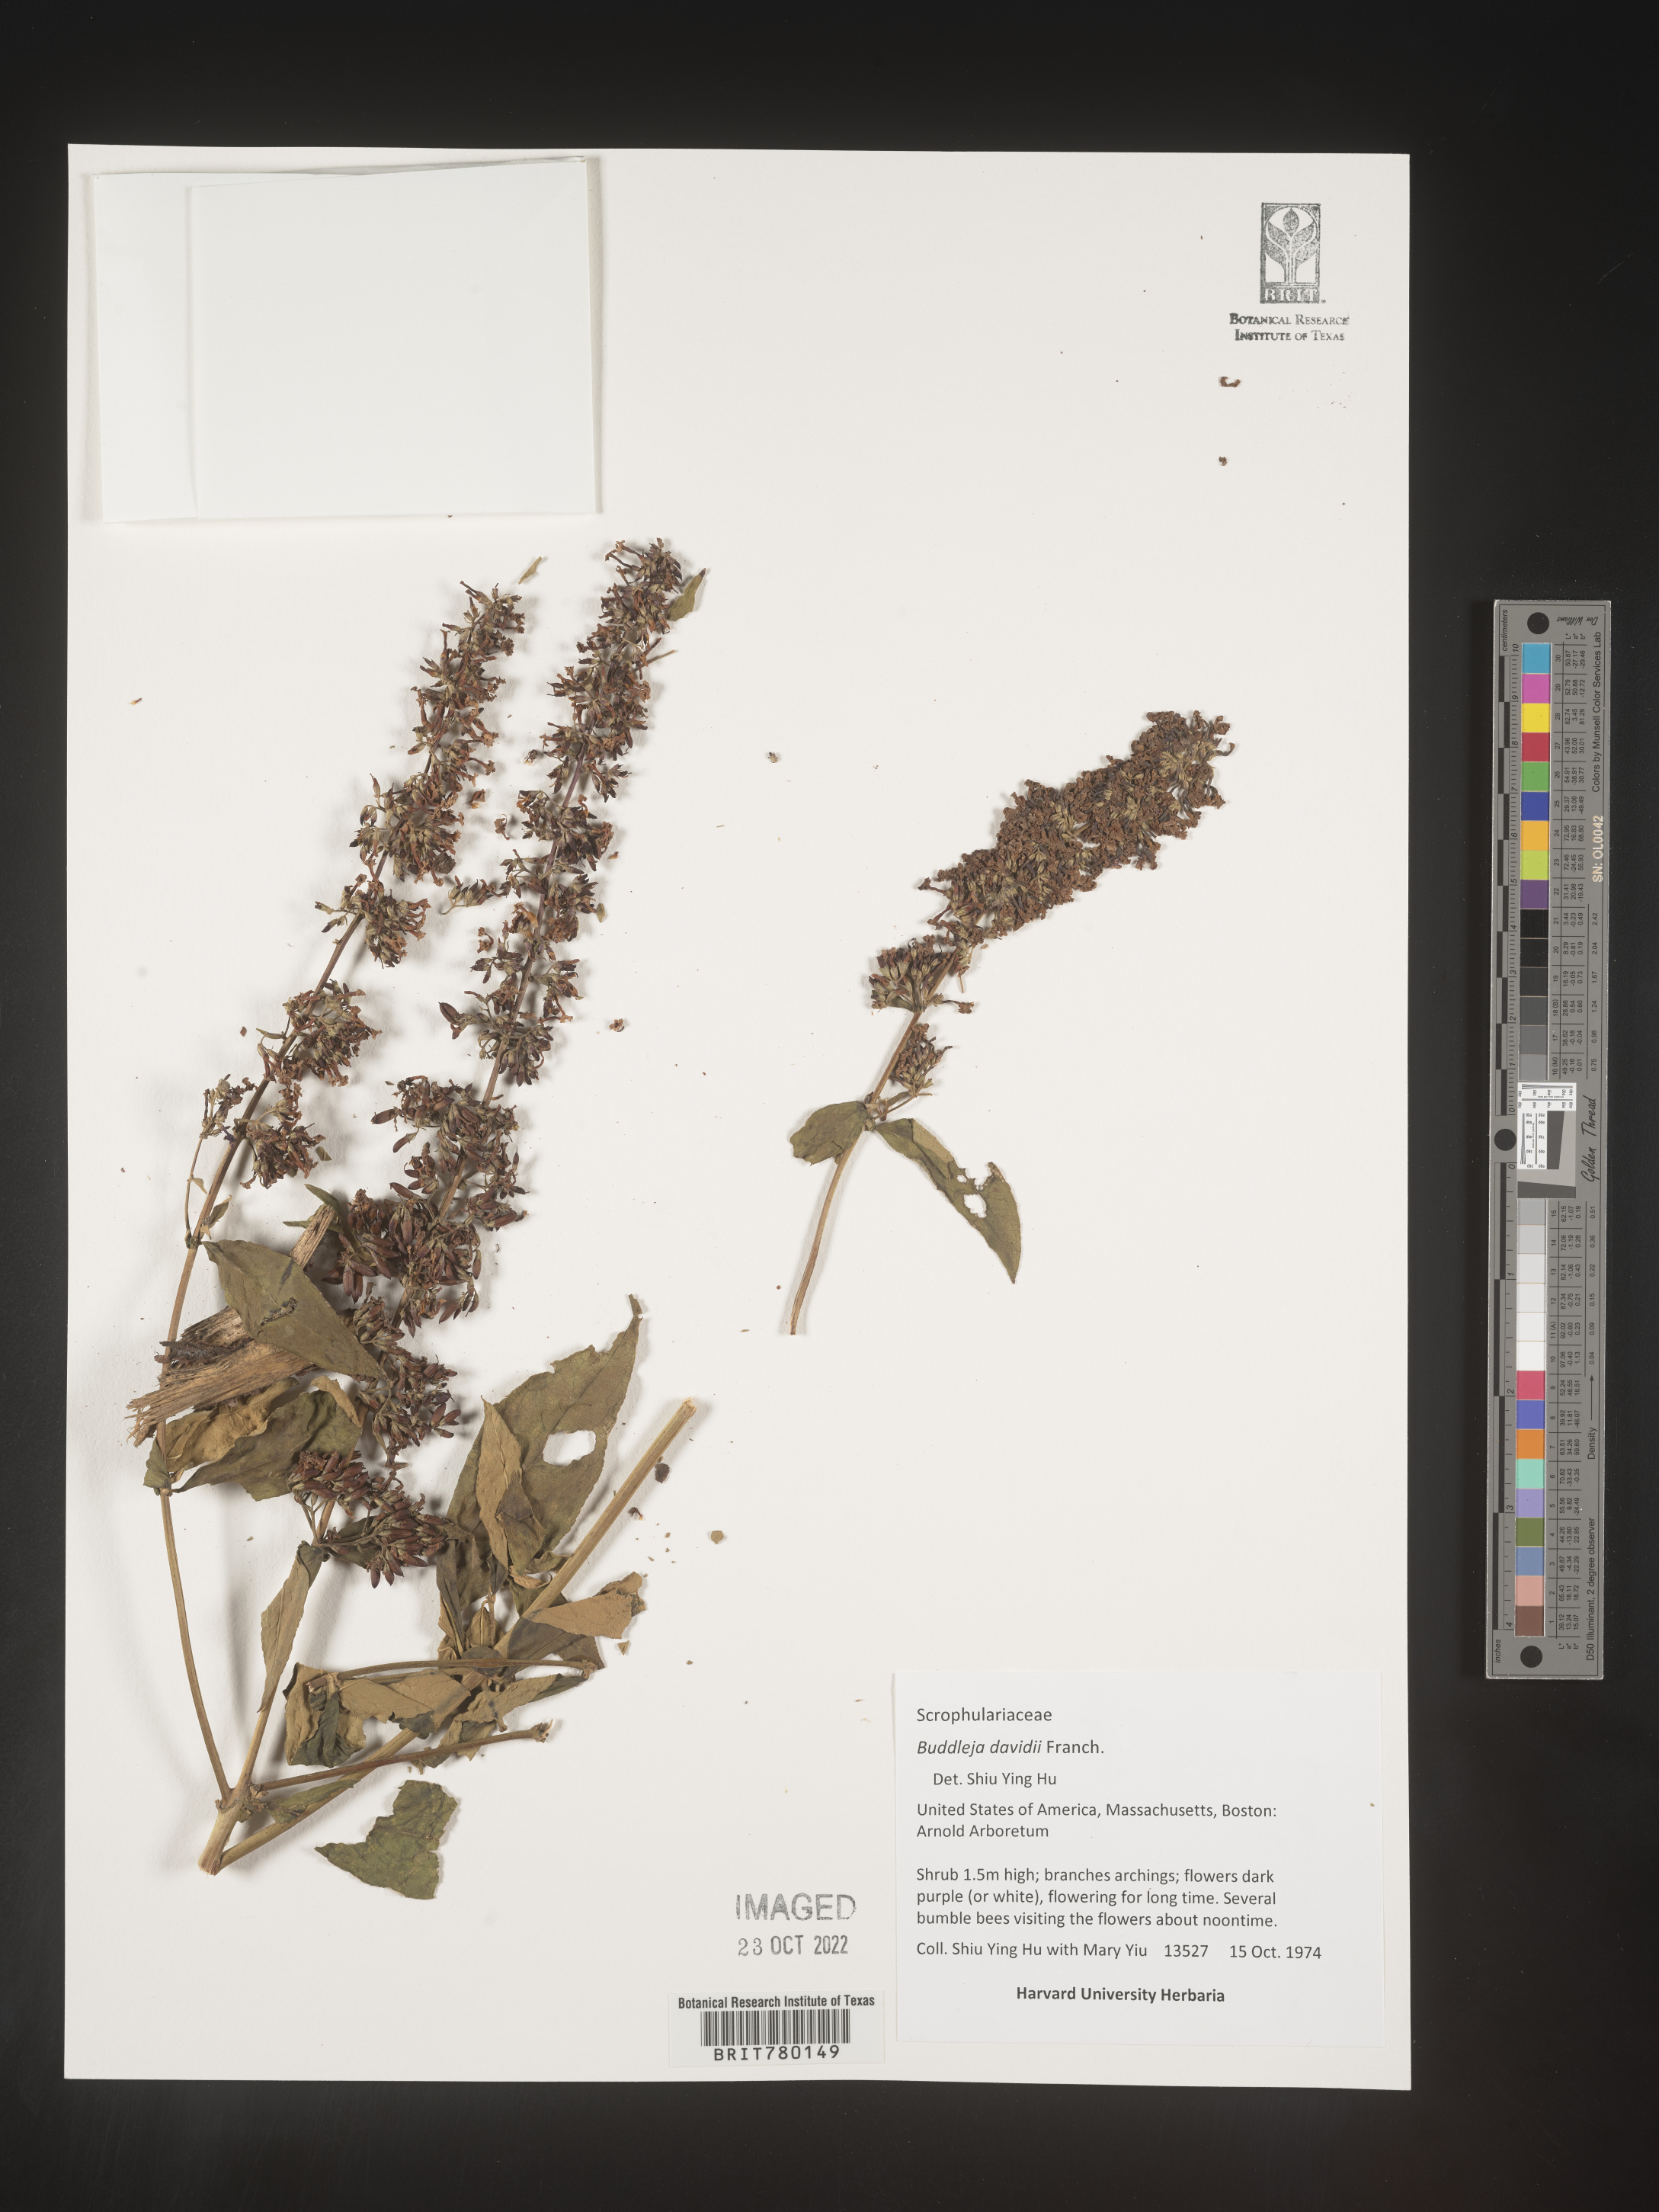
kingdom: Plantae
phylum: Tracheophyta
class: Magnoliopsida
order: Lamiales
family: Scrophulariaceae
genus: Buddleja
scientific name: Buddleja
